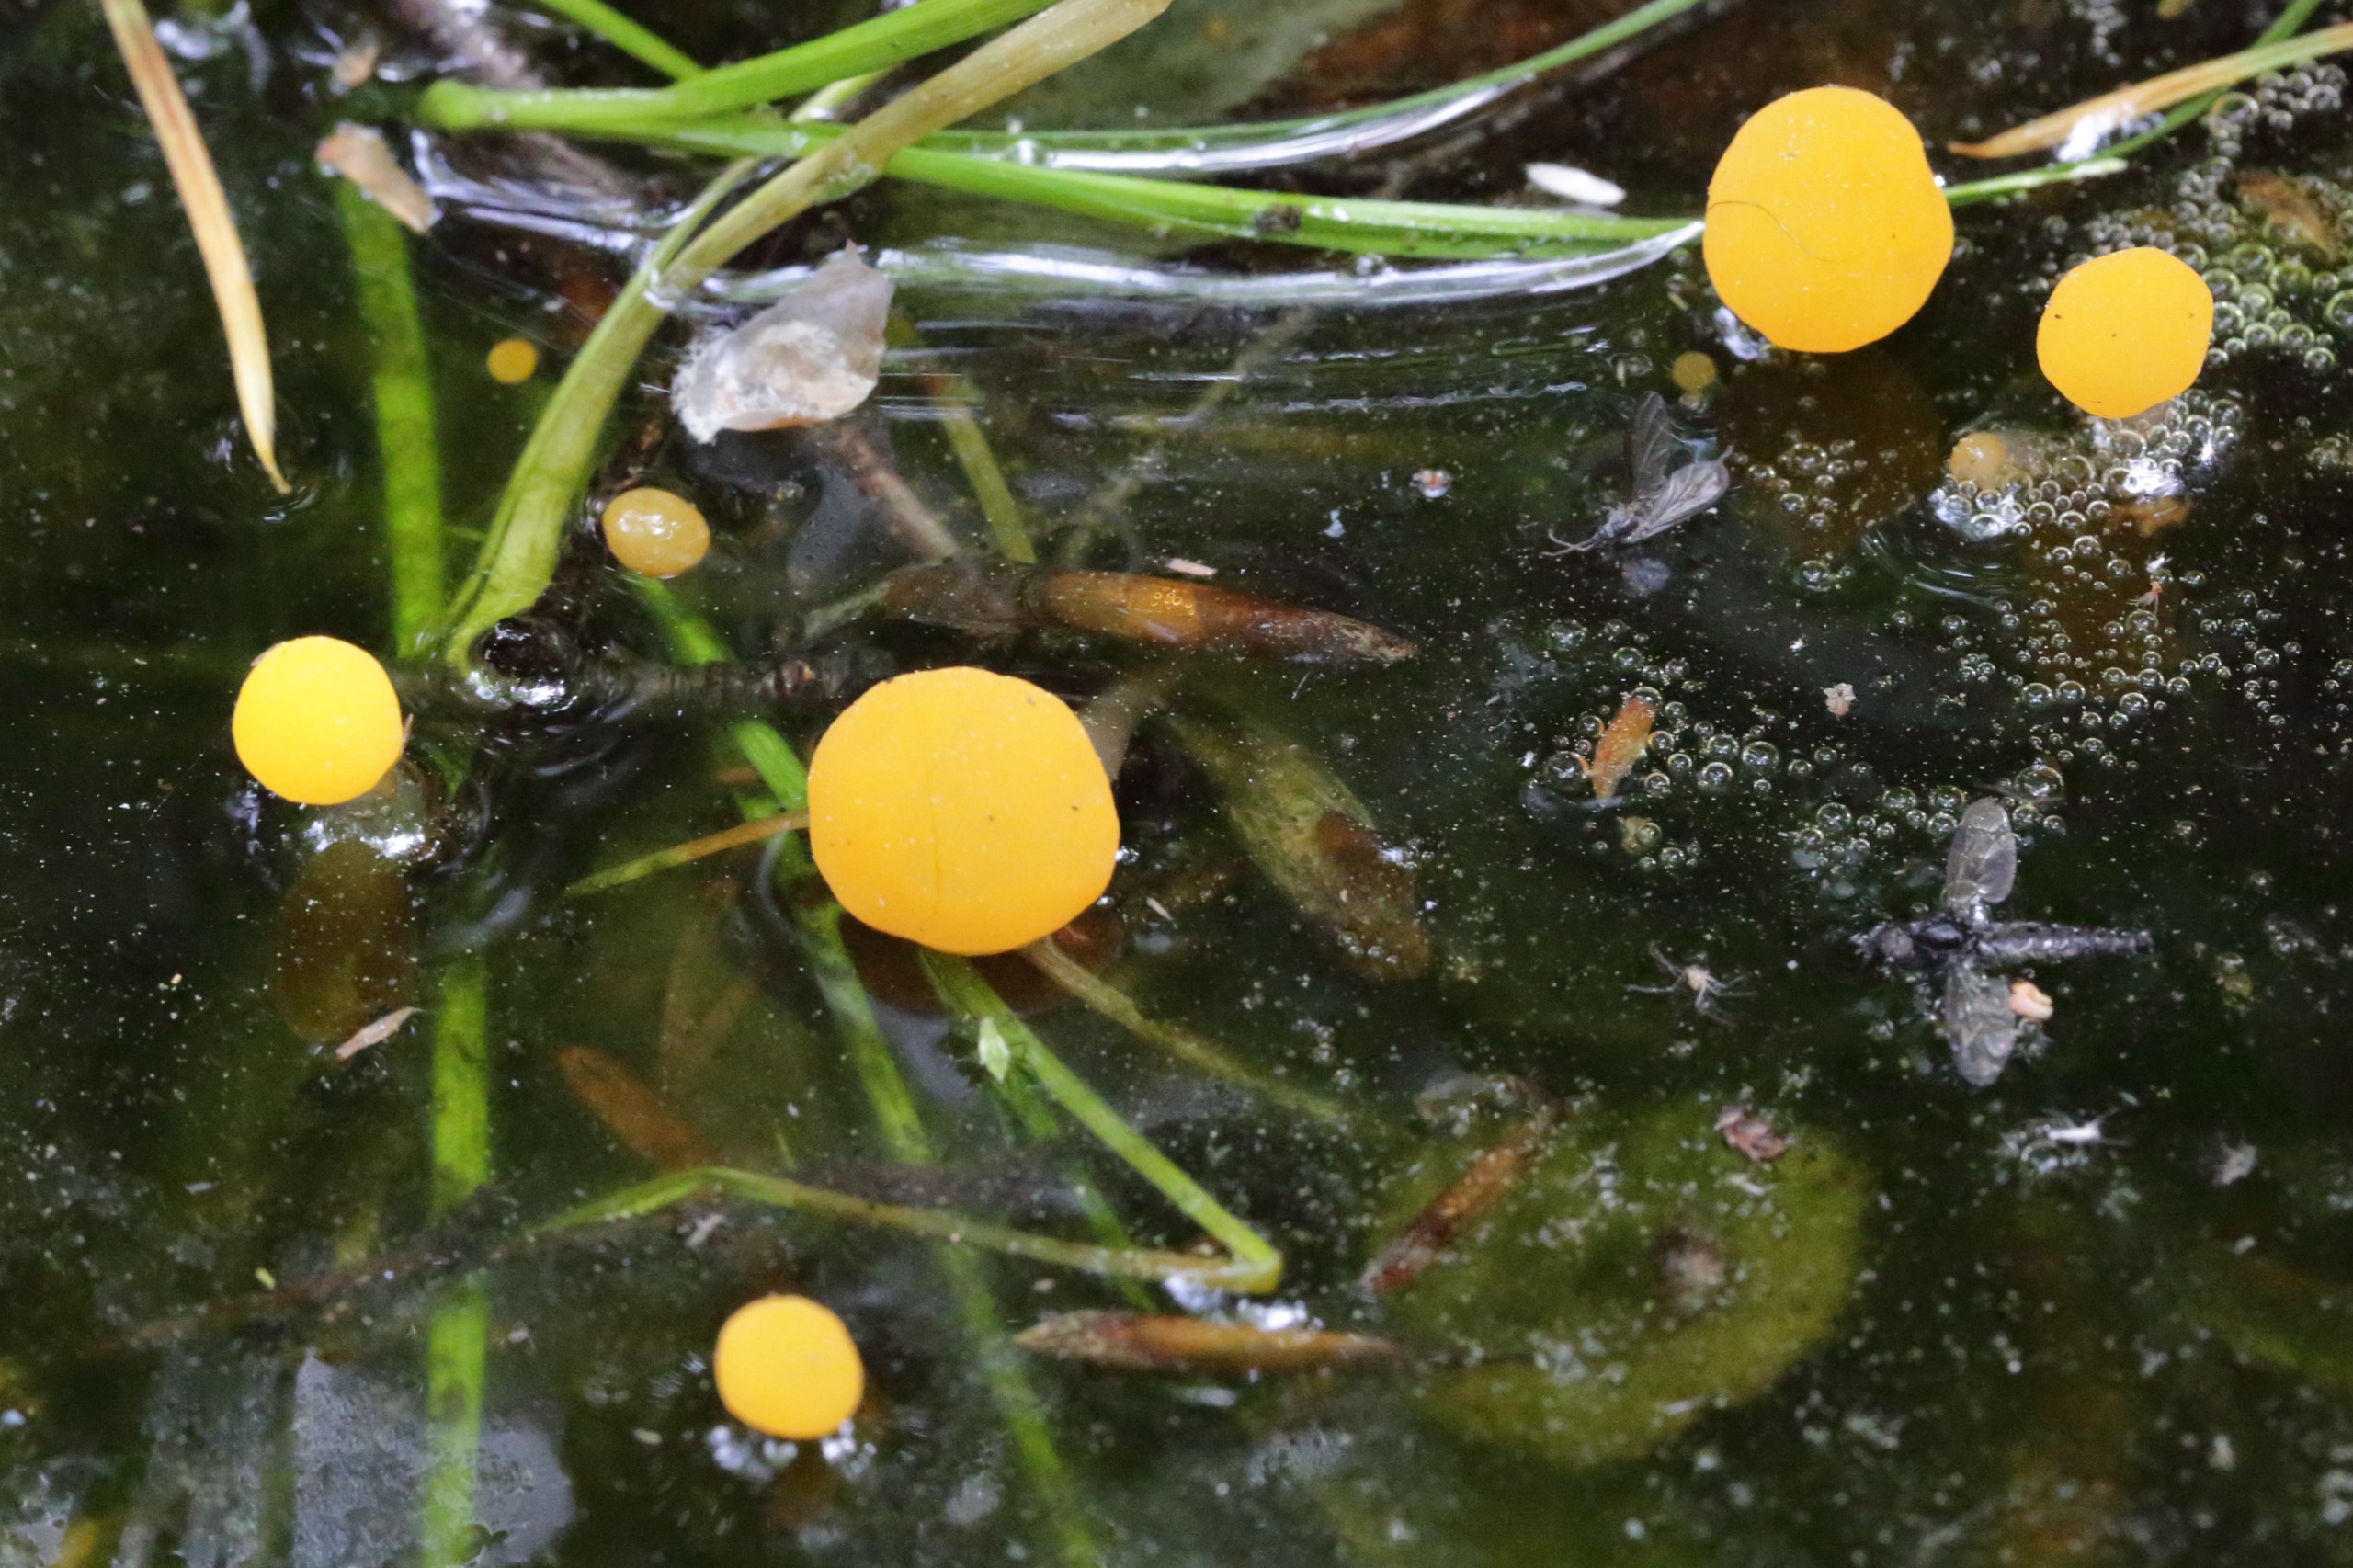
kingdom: Fungi
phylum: Ascomycota
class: Leotiomycetes
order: Helotiales
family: Cenangiaceae
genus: Mitrula
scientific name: Mitrula paludosa
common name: Gul nøkketunge
